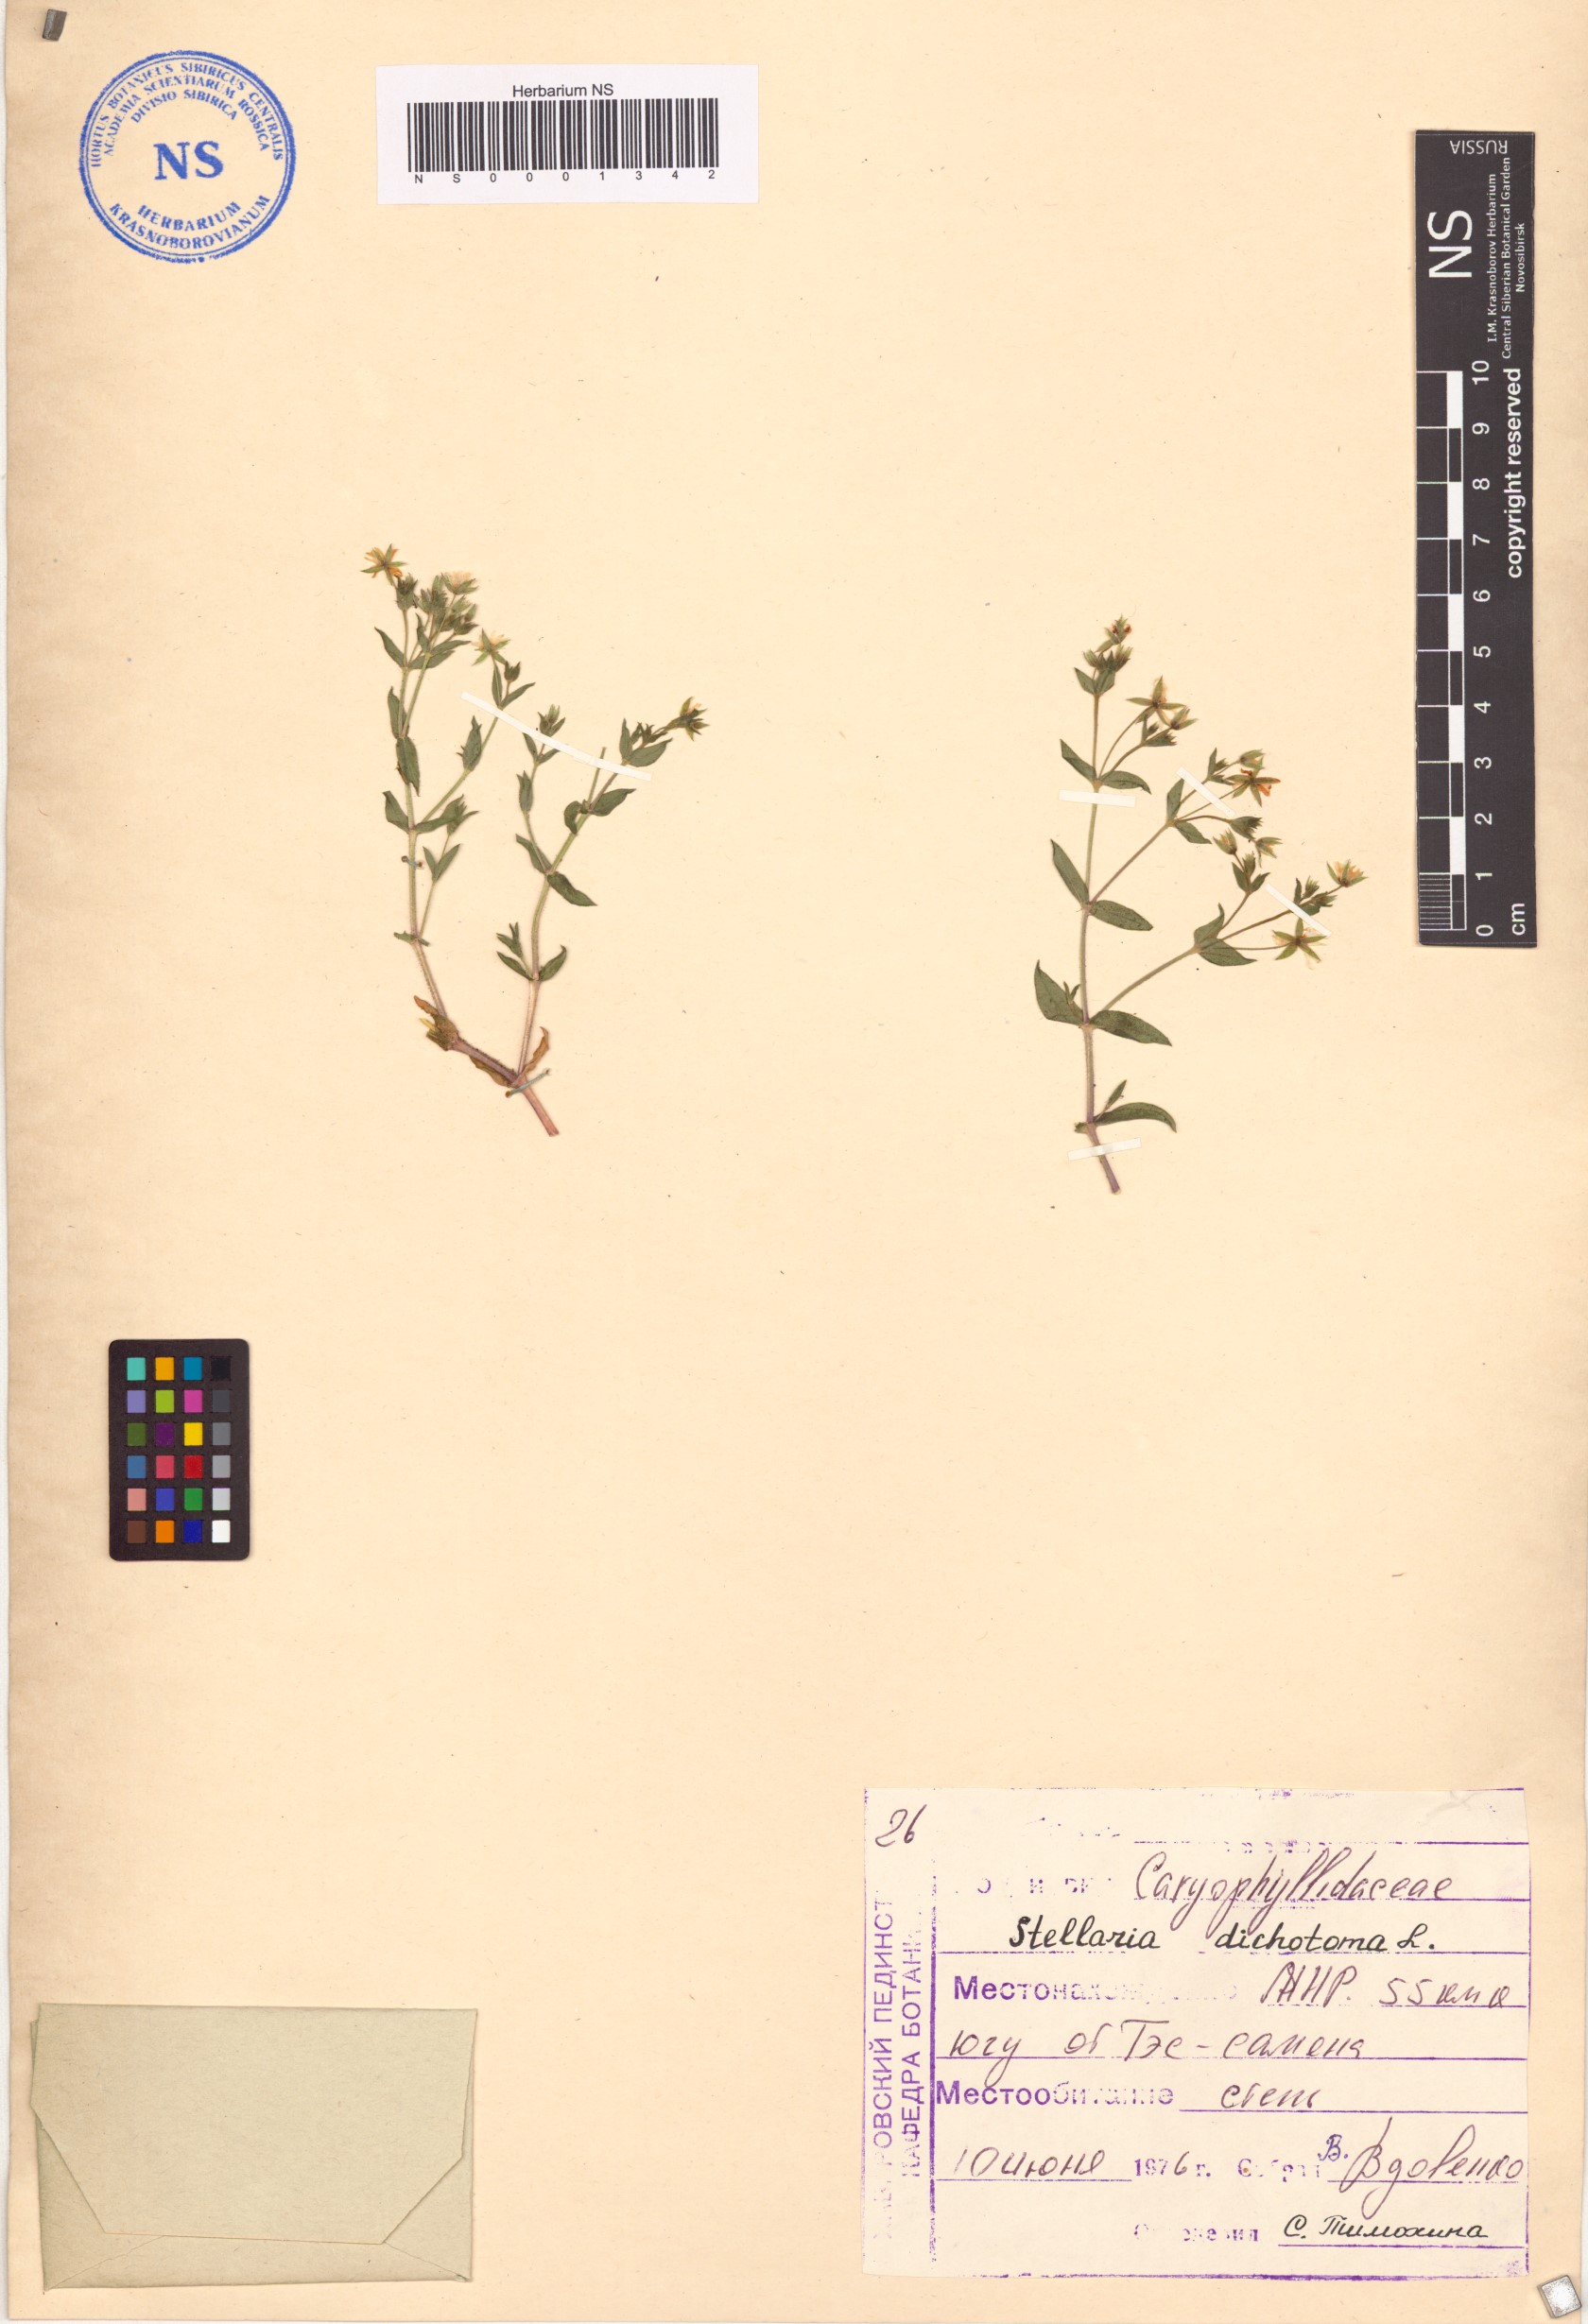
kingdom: Plantae
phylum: Tracheophyta
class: Magnoliopsida
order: Caryophyllales
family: Caryophyllaceae
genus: Mesostemma
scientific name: Mesostemma dichotomum
